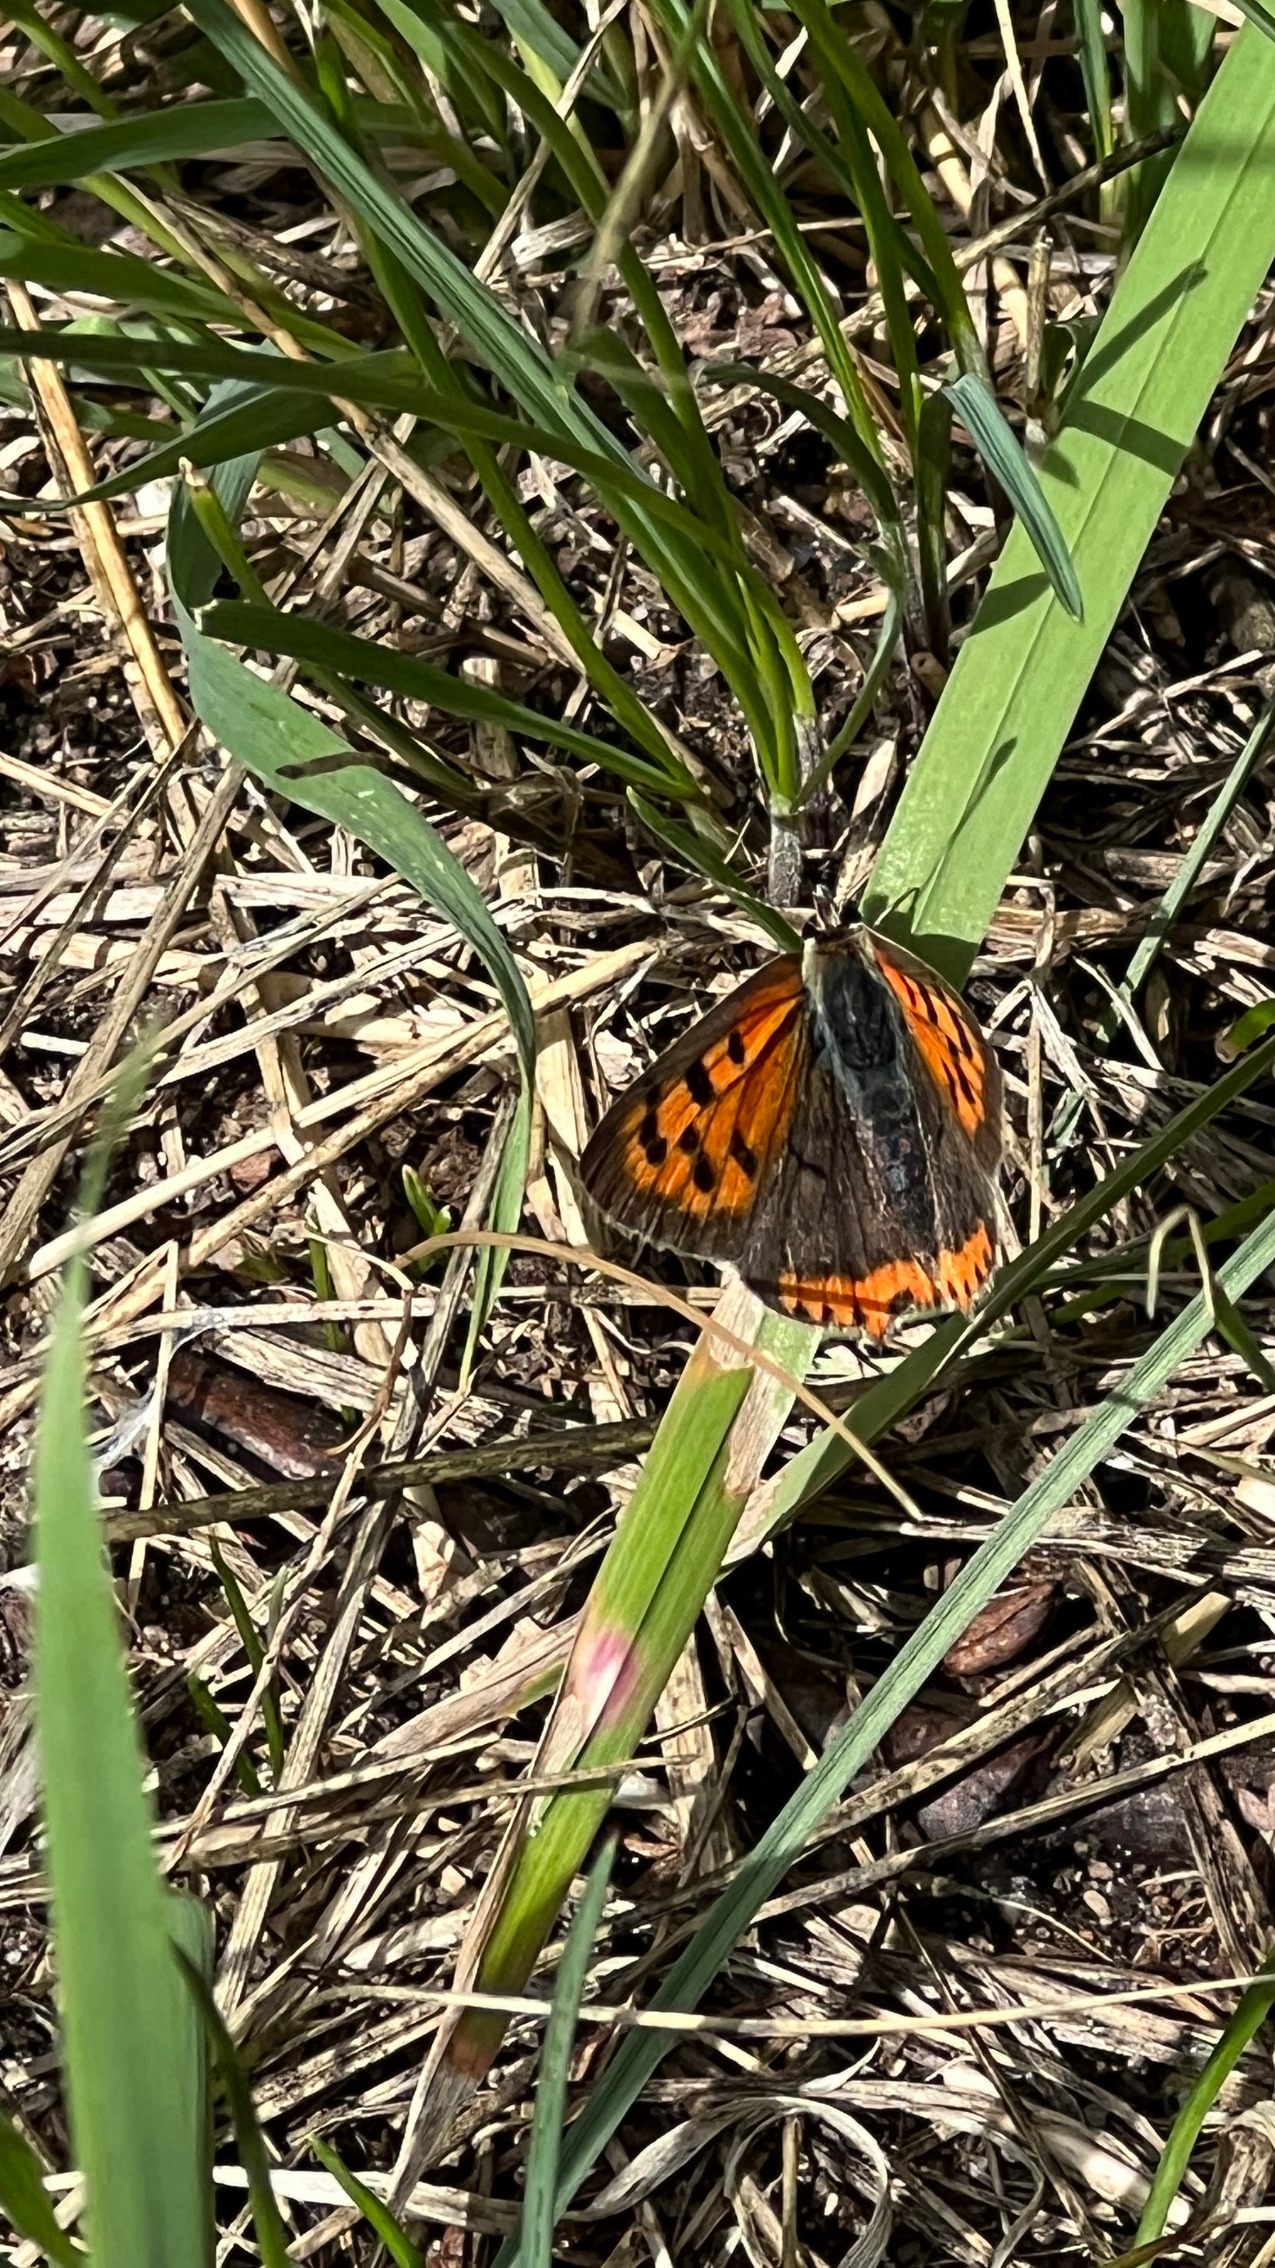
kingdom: Animalia
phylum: Arthropoda
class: Insecta
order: Lepidoptera
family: Lycaenidae
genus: Lycaena
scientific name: Lycaena phlaeas
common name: Lille ildfugl
